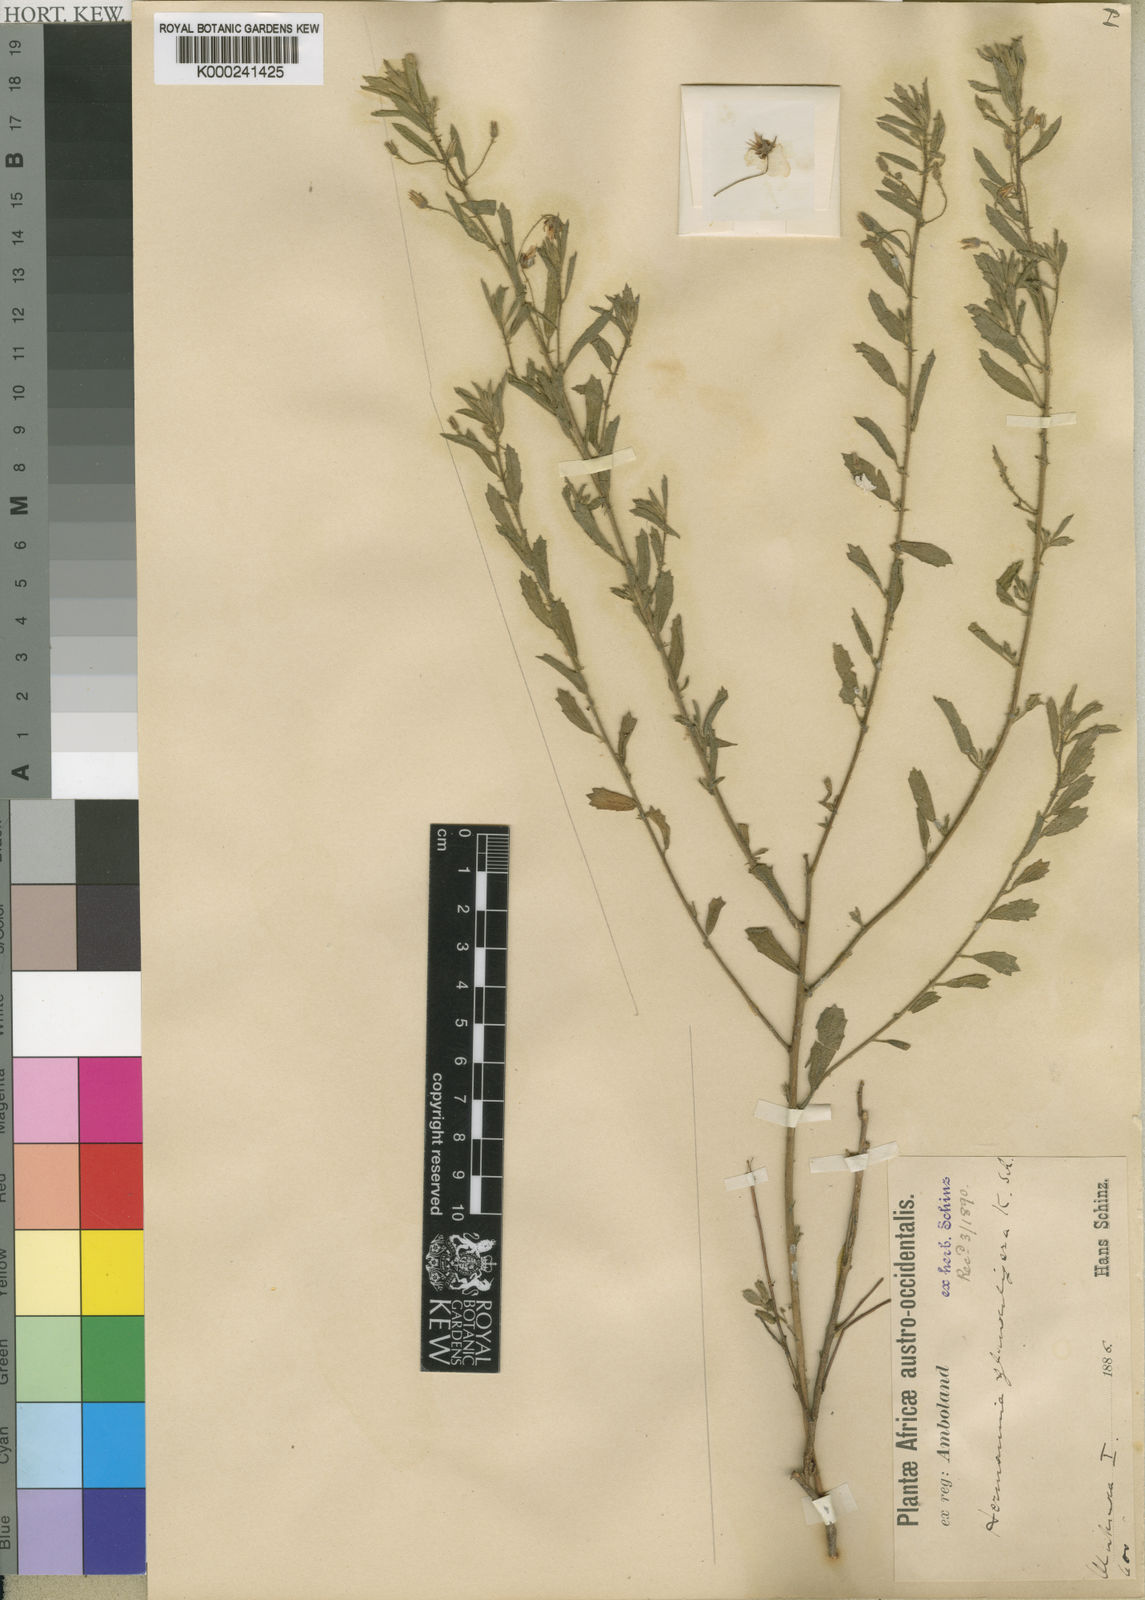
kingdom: Plantae
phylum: Tracheophyta
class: Magnoliopsida
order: Malvales
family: Malvaceae
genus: Hermannia
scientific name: Hermannia glanduligera
